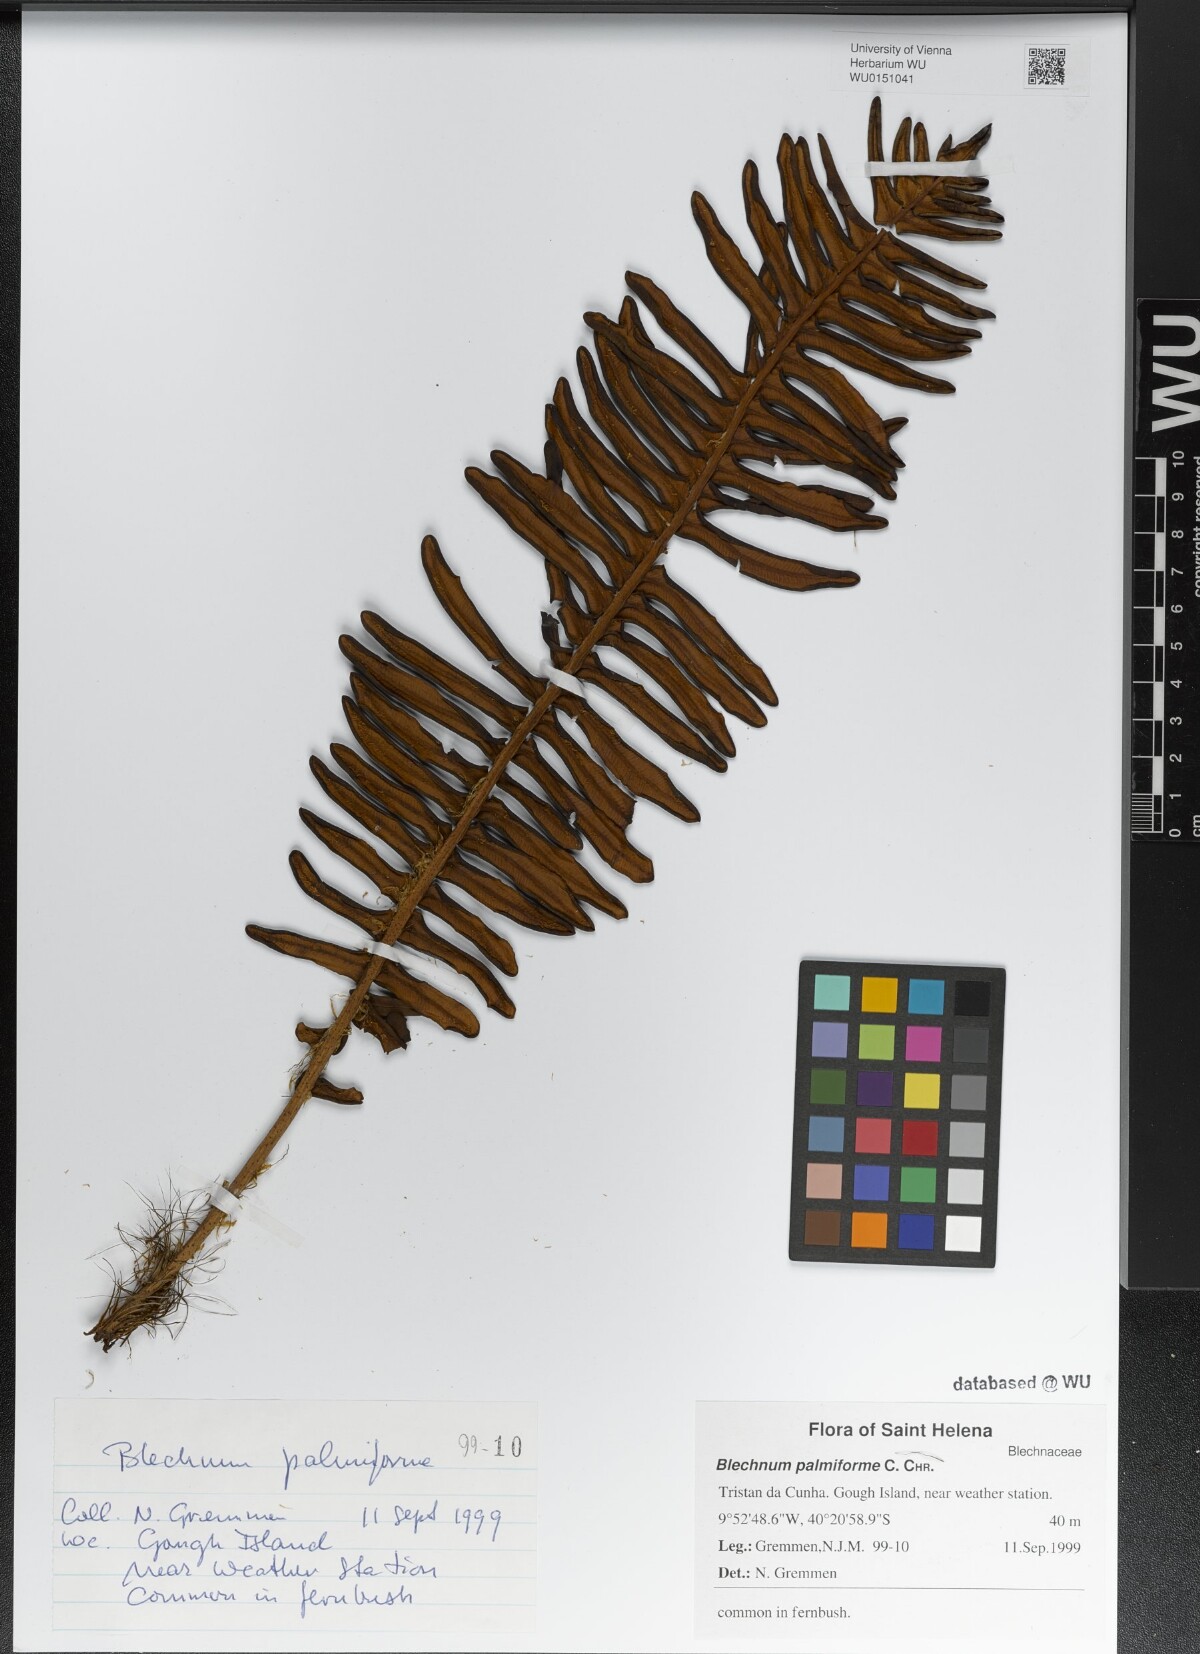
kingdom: Plantae
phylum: Tracheophyta
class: Polypodiopsida
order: Polypodiales
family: Blechnaceae
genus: Lomariocycas
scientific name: Lomariocycas palmiformis
